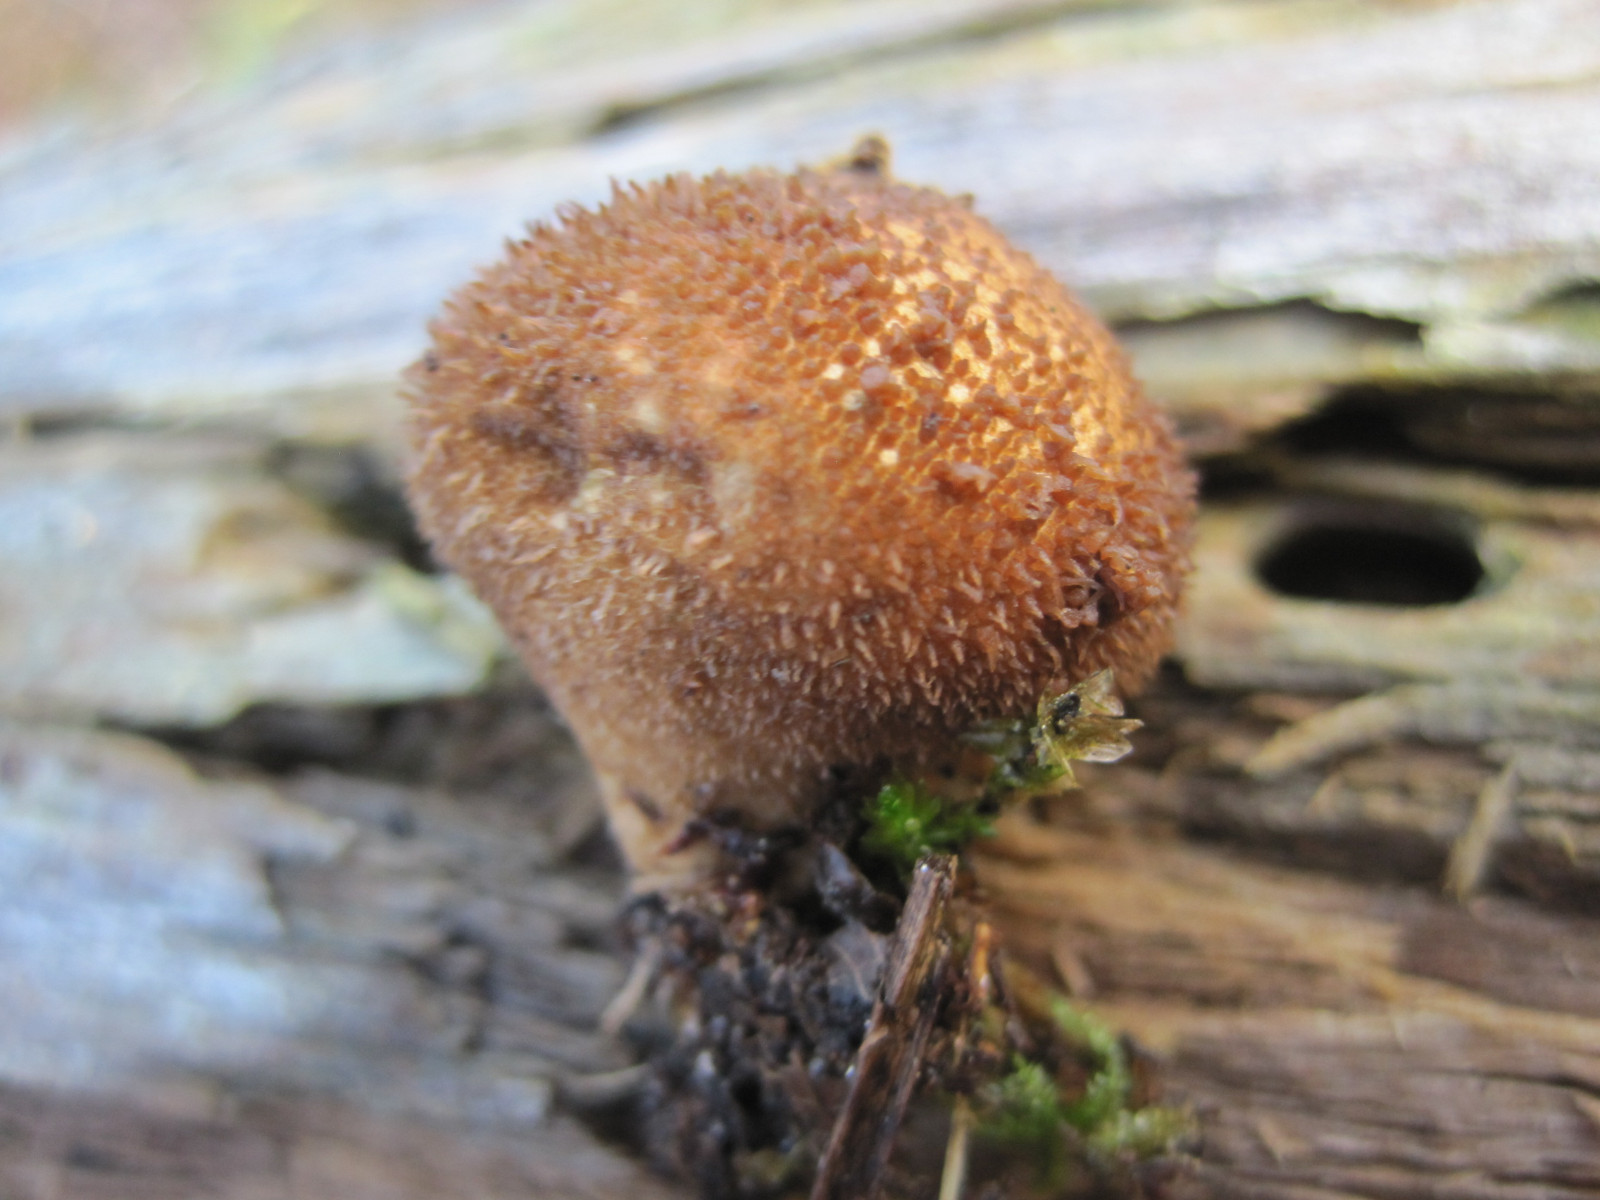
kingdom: Fungi
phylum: Basidiomycota
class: Agaricomycetes
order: Agaricales
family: Lycoperdaceae
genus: Lycoperdon
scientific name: Lycoperdon nigrescens
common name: sortagtig støvbold
